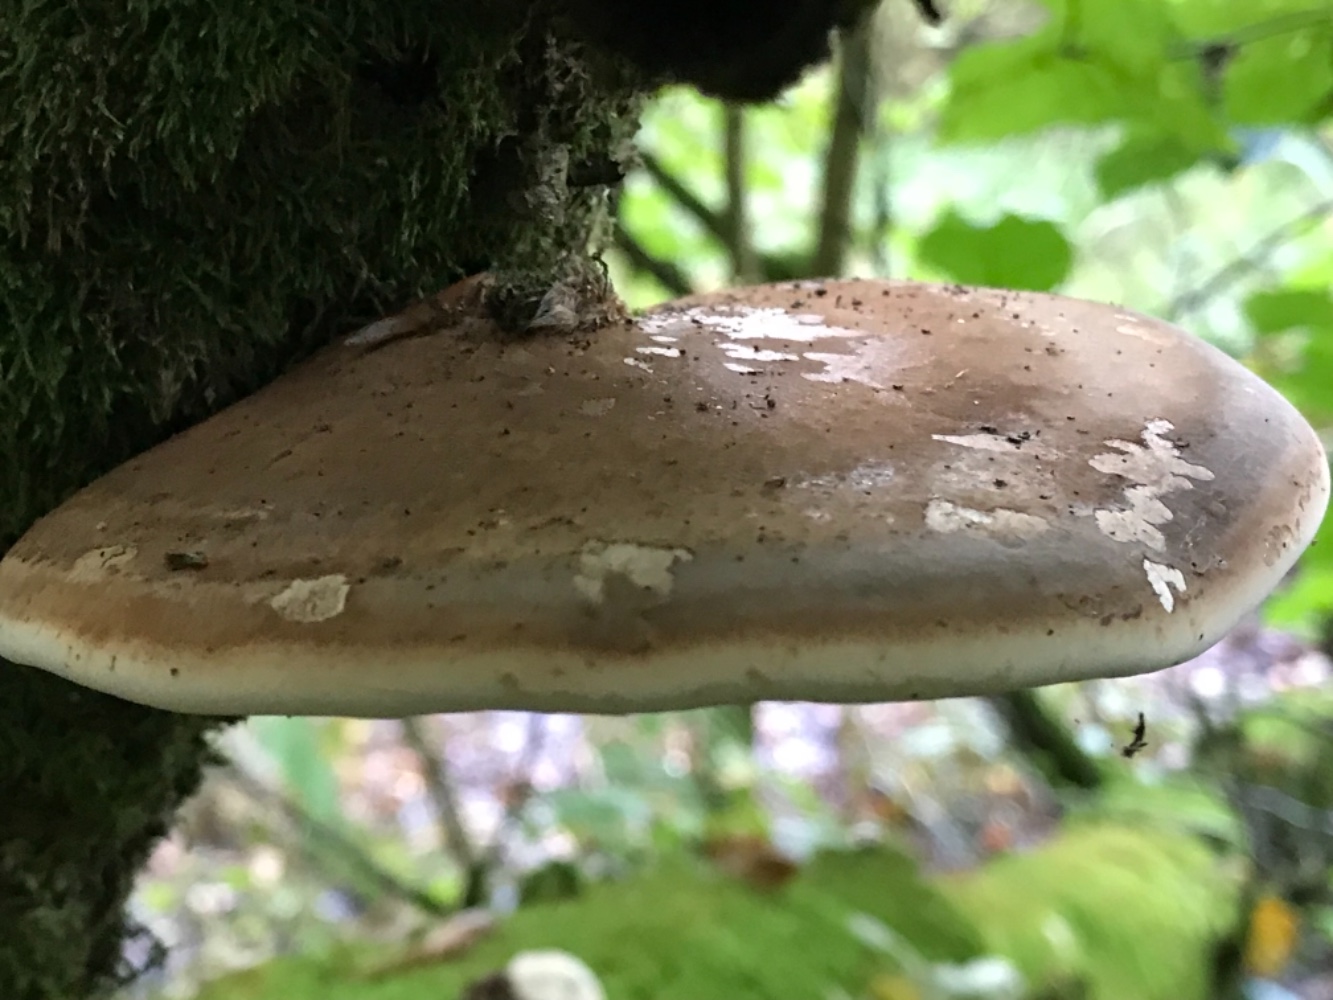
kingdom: Fungi
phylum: Basidiomycota
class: Agaricomycetes
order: Polyporales
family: Fomitopsidaceae
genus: Fomitopsis
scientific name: Fomitopsis betulina
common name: birkeporesvamp
